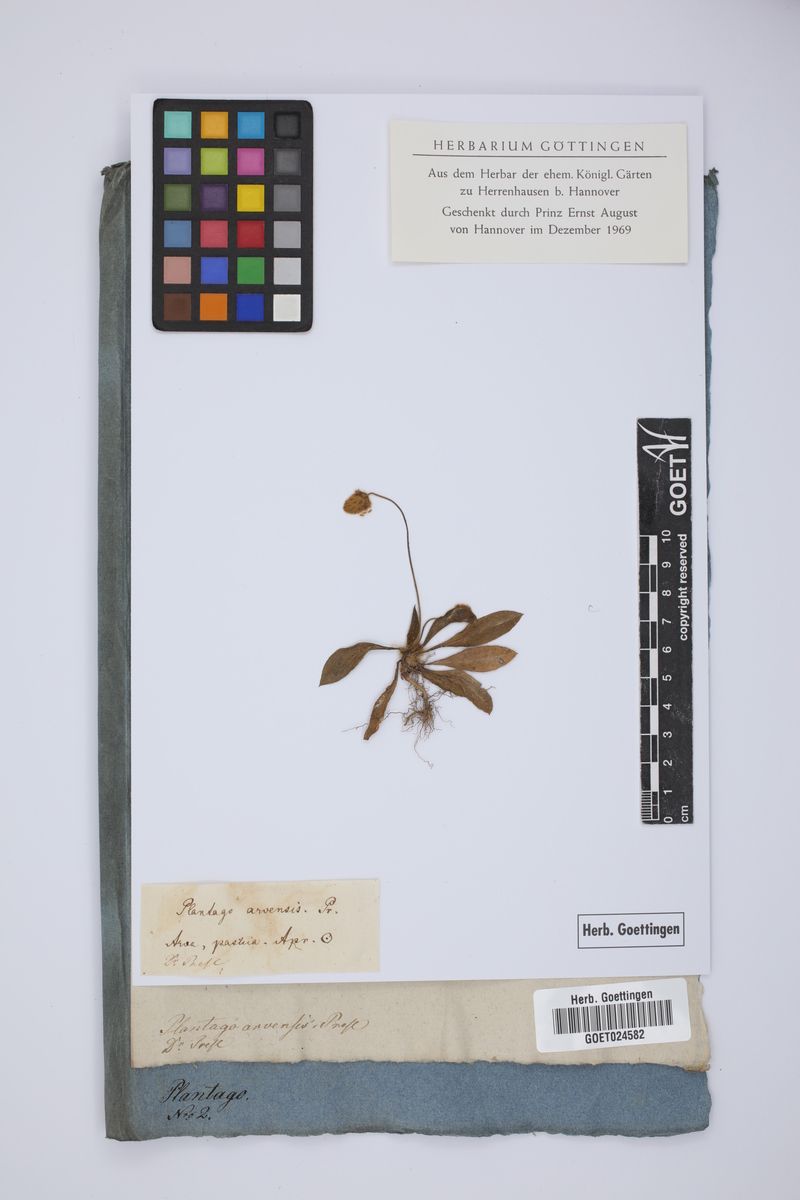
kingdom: Plantae
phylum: Tracheophyta
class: Magnoliopsida
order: Lamiales
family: Plantaginaceae
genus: Plantago
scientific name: Plantago lagopus
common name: Hare-foot plantain
